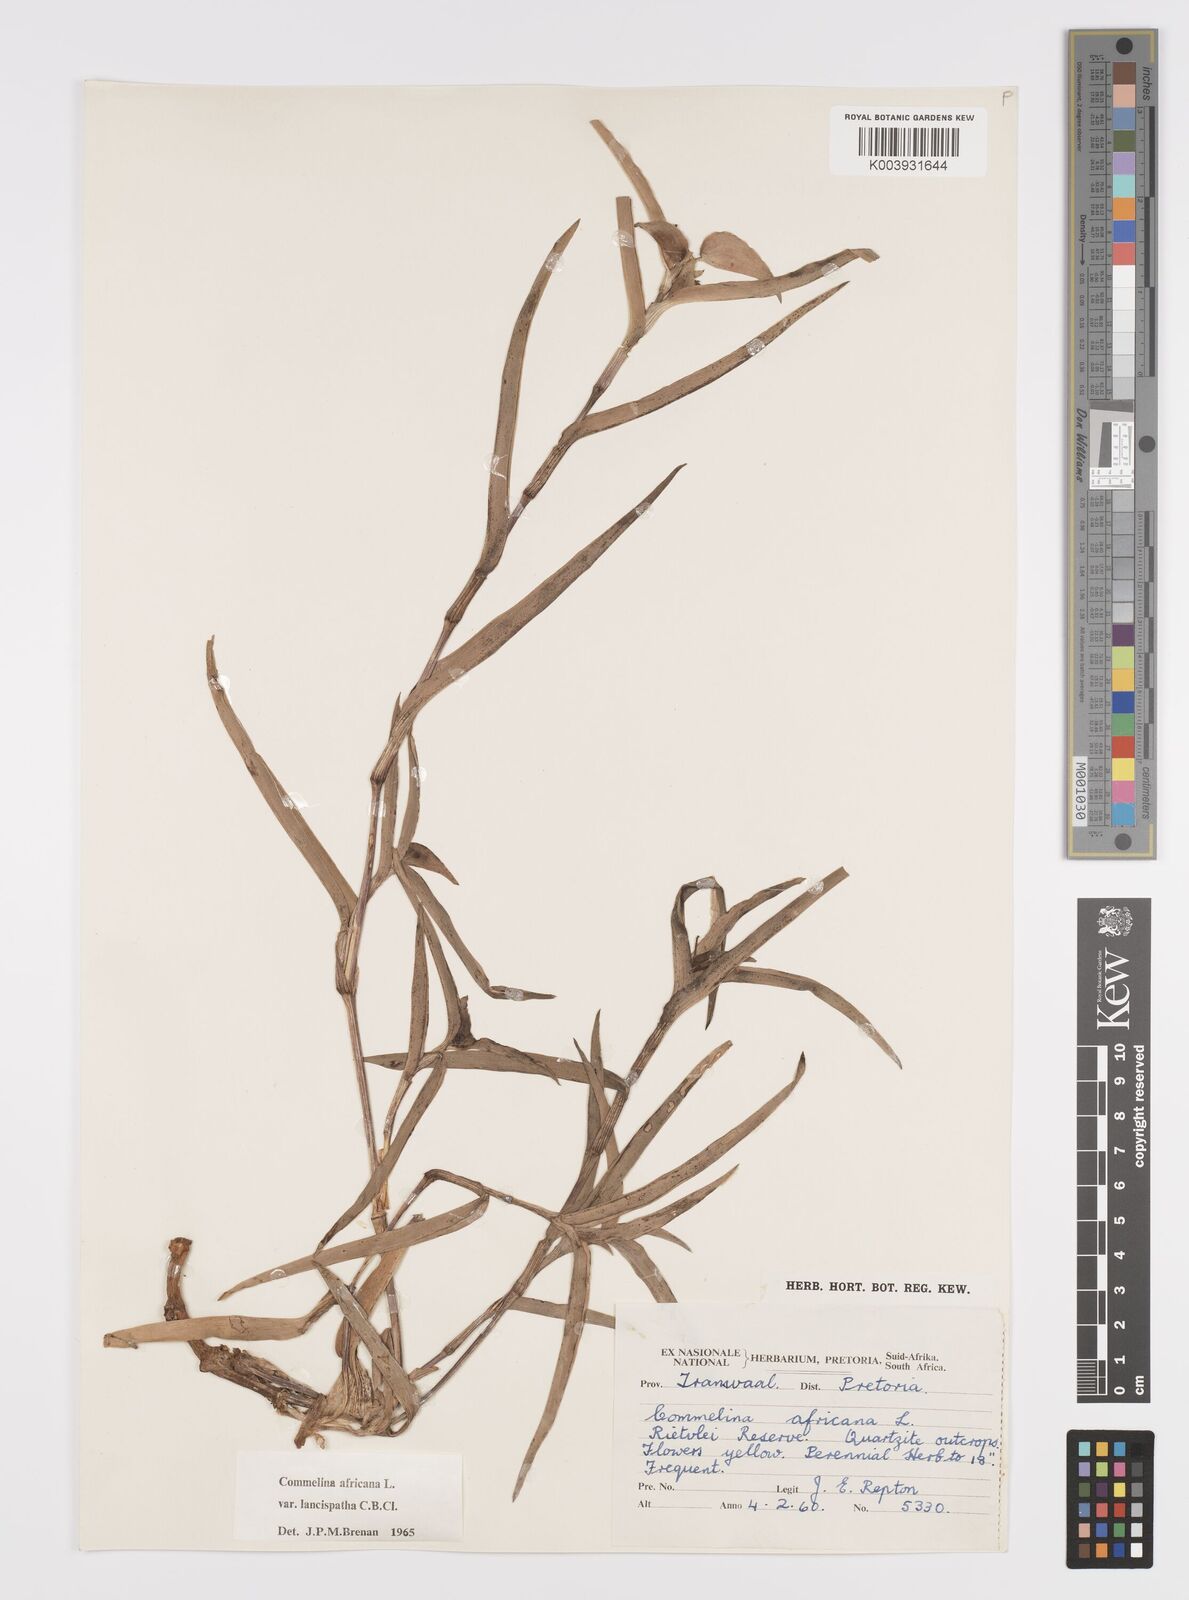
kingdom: Plantae
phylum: Tracheophyta
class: Liliopsida
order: Commelinales
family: Commelinaceae
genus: Commelina
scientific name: Commelina africana
